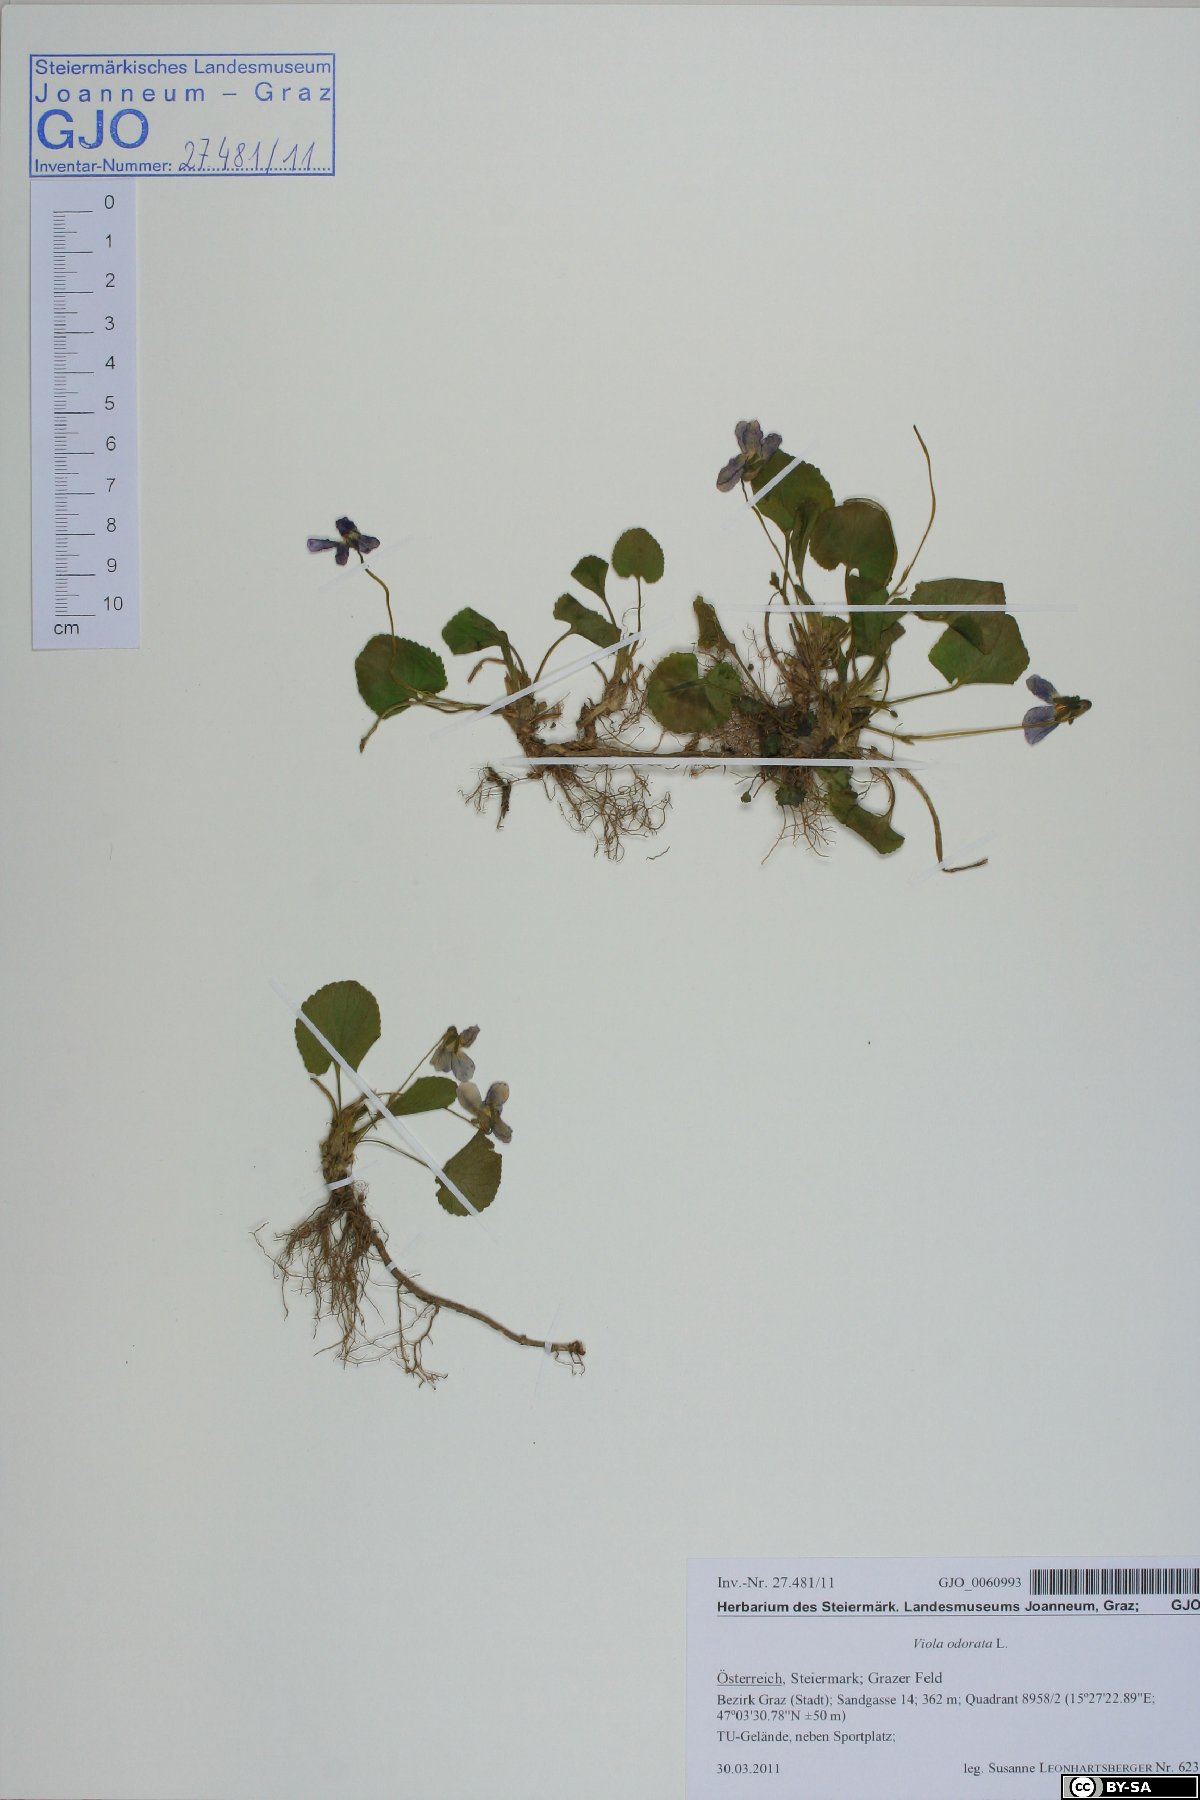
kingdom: Plantae
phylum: Tracheophyta
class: Magnoliopsida
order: Malpighiales
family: Violaceae
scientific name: Violaceae
